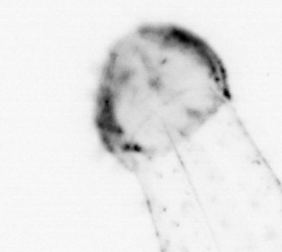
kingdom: Animalia
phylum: Chaetognatha
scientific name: Chaetognatha
